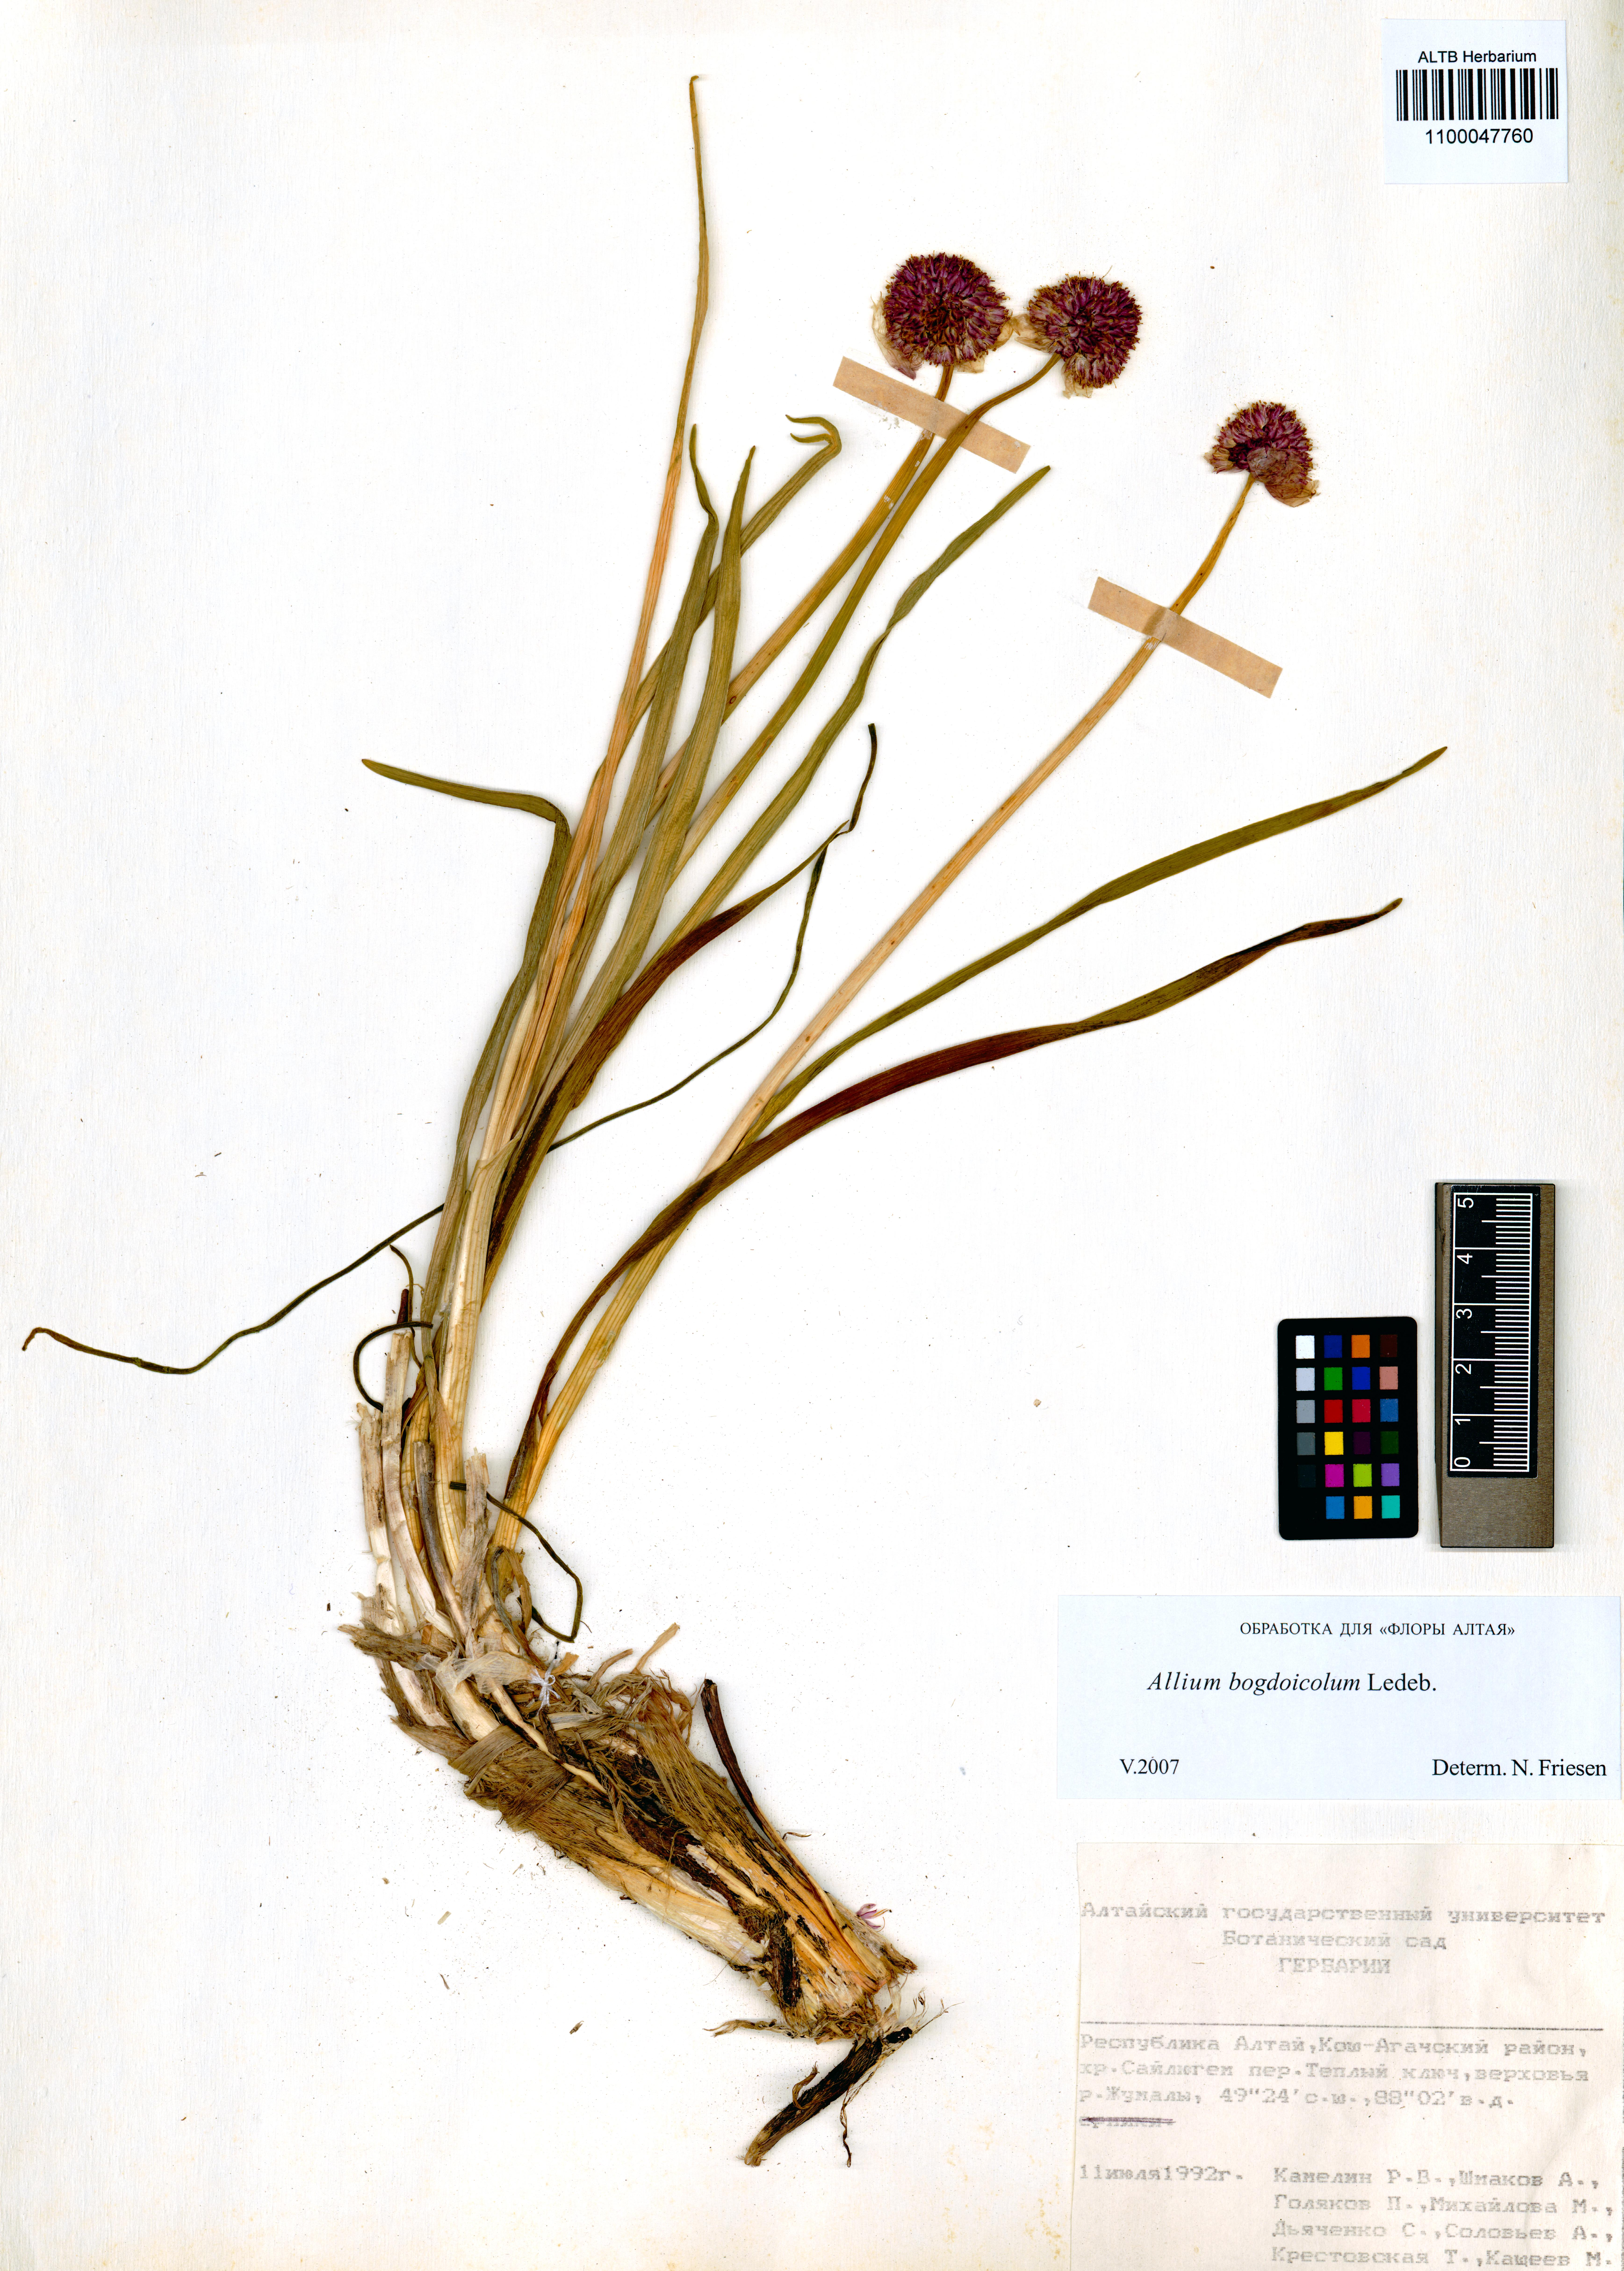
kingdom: Plantae
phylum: Tracheophyta
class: Liliopsida
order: Asparagales
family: Amaryllidaceae
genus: Allium
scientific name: Allium schrenkii
